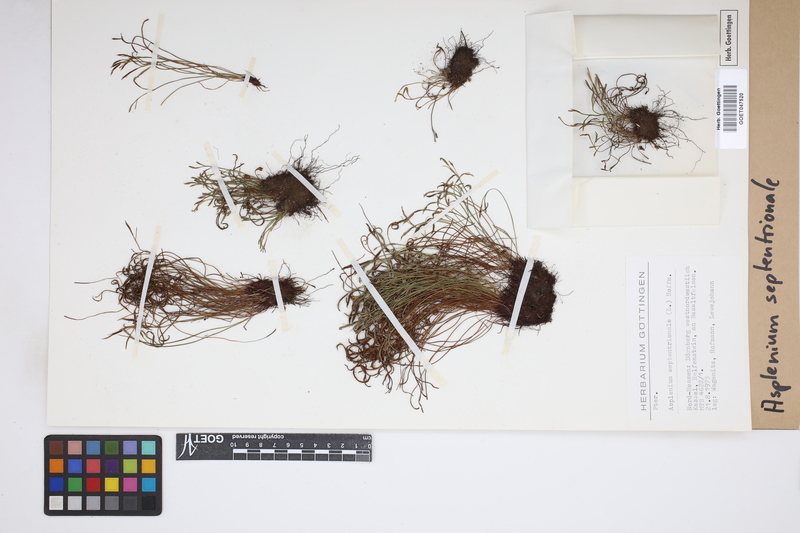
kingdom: Plantae
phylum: Tracheophyta
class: Polypodiopsida
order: Polypodiales
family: Aspleniaceae
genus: Asplenium
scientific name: Asplenium septentrionale
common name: Forked spleenwort
